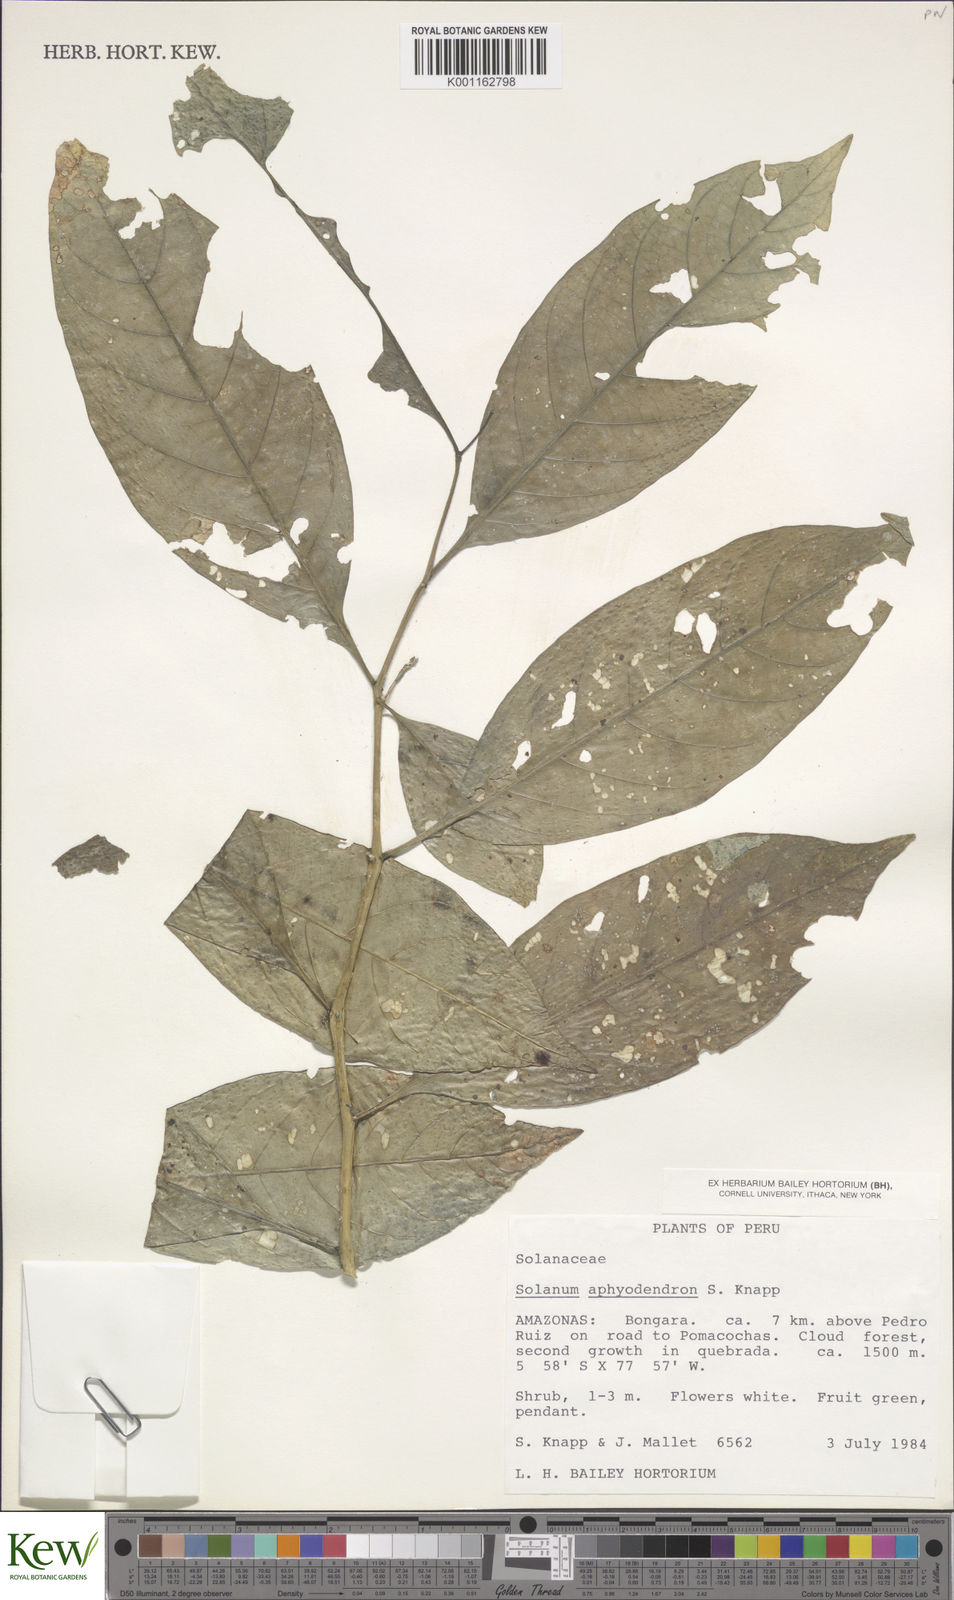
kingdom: Plantae
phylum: Tracheophyta
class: Magnoliopsida
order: Solanales
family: Solanaceae
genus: Solanum
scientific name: Solanum aphyodendron
